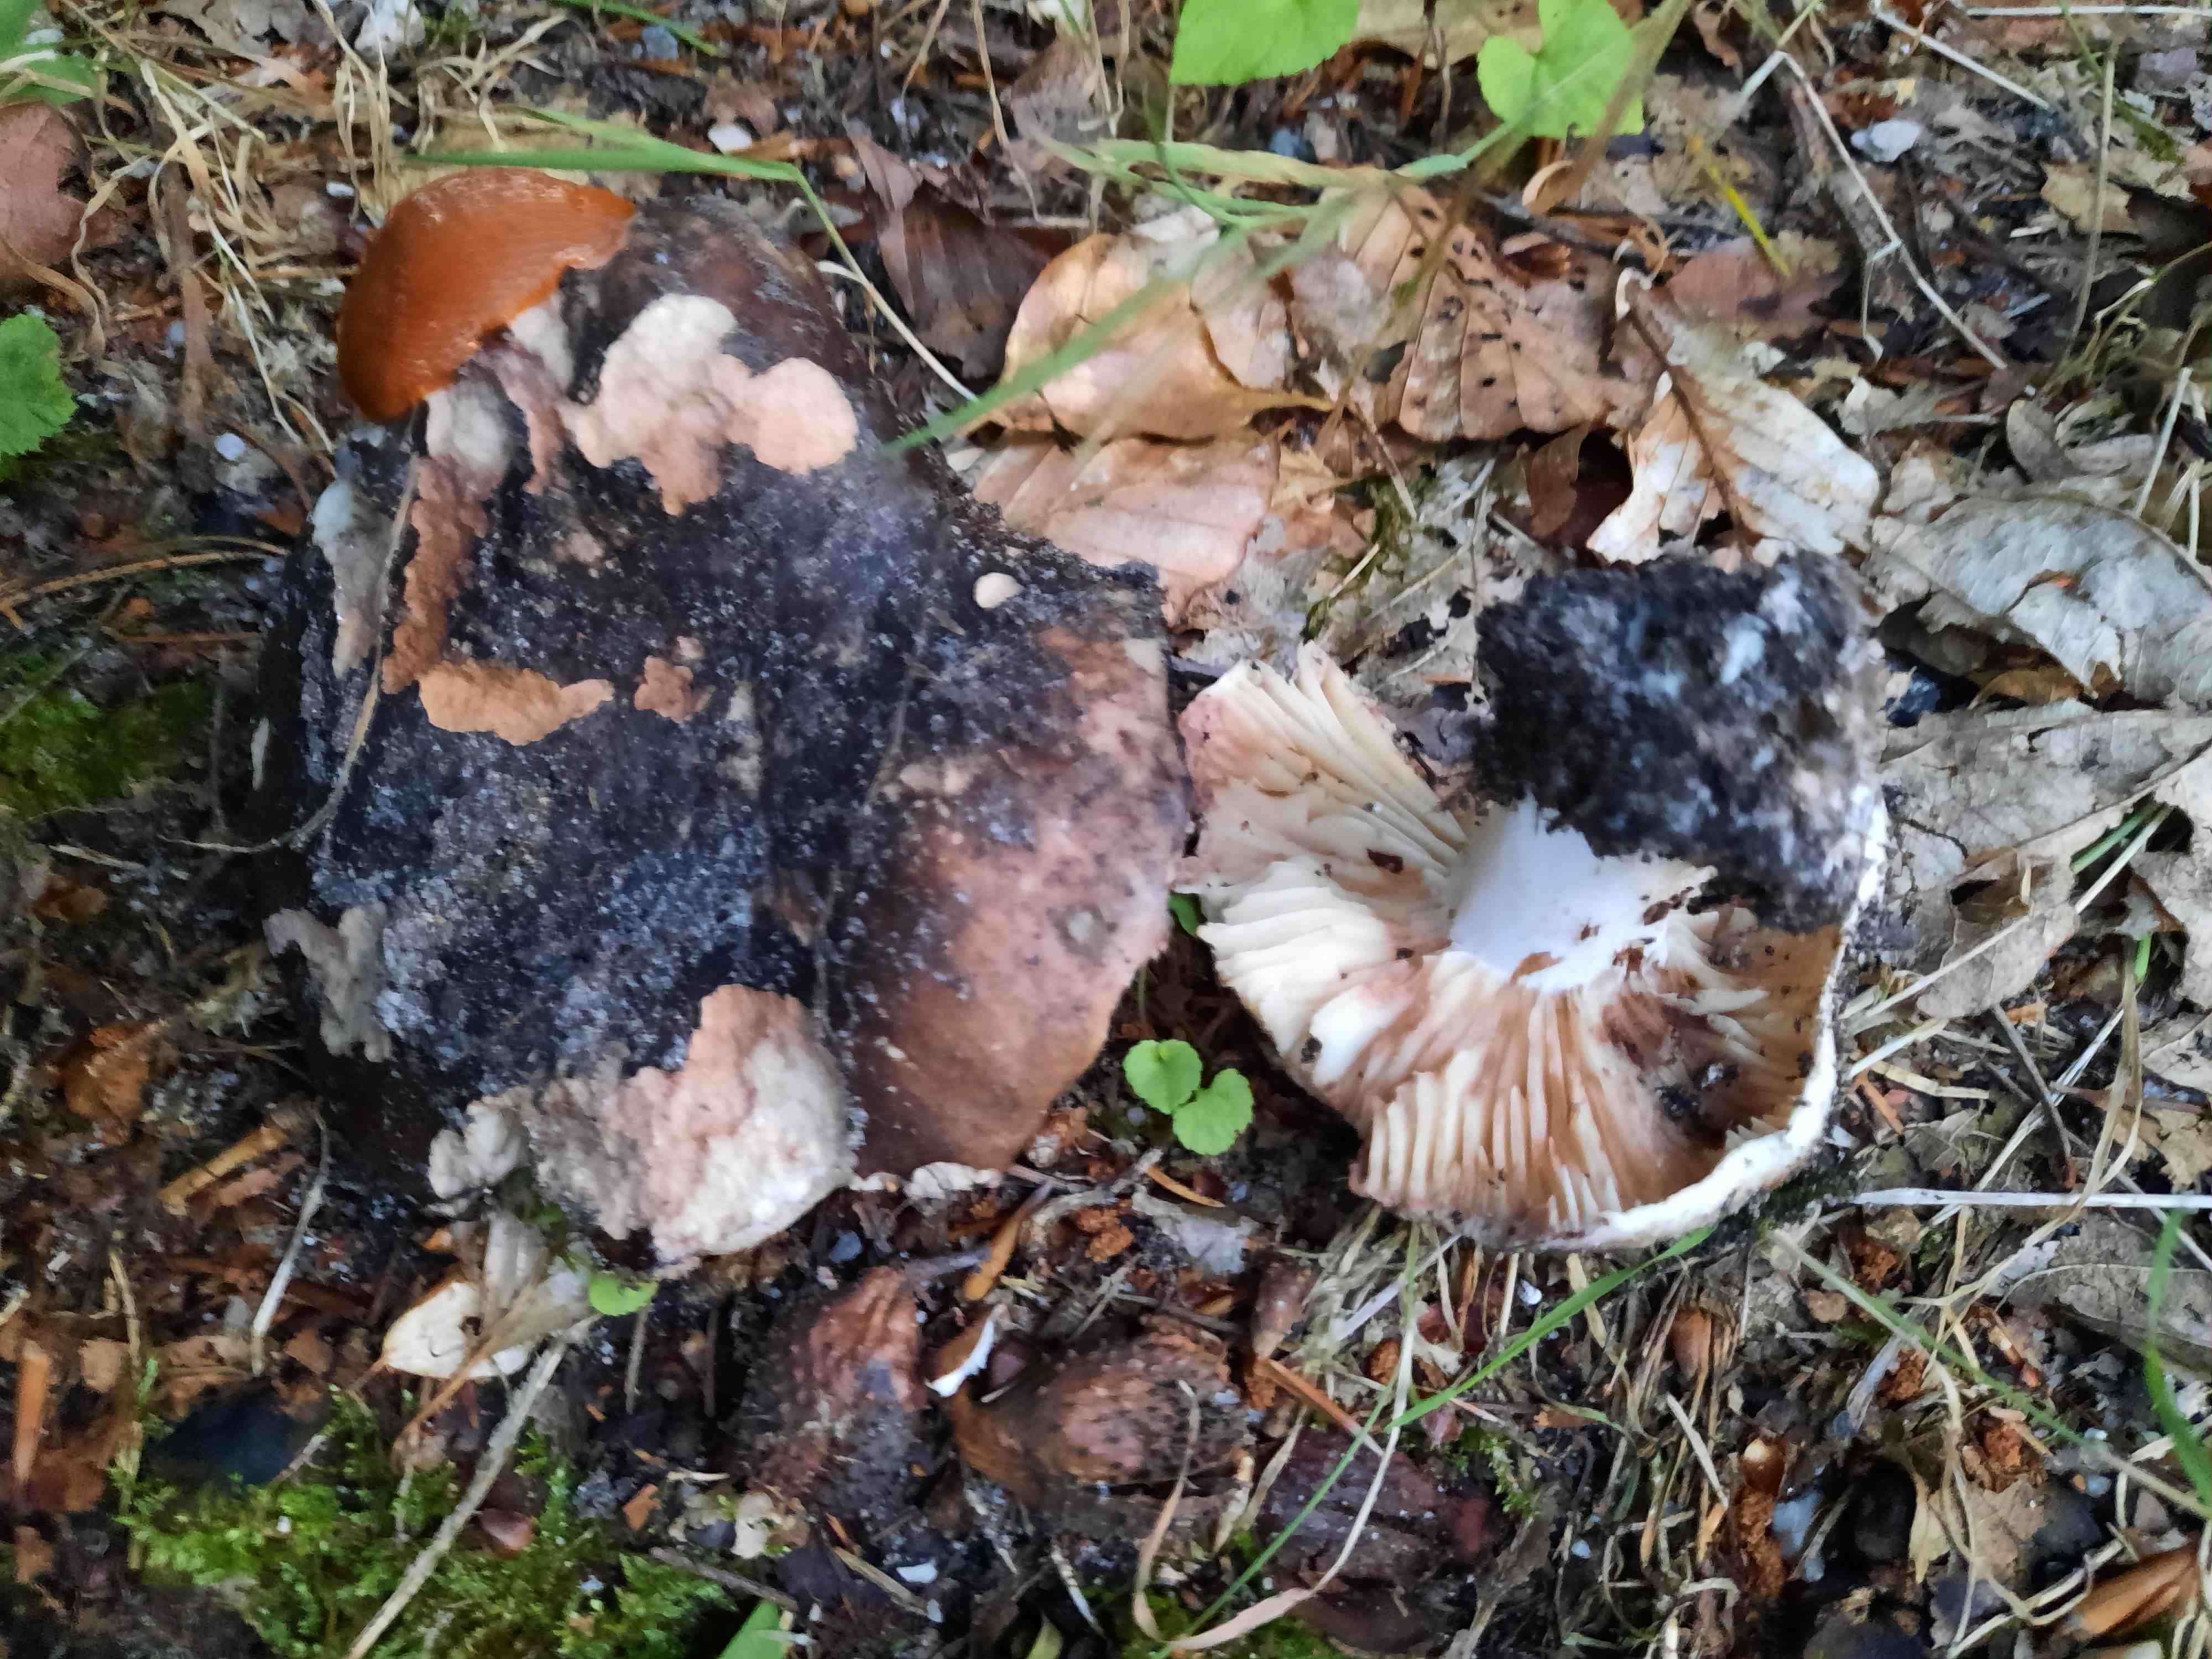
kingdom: Fungi
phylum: Basidiomycota
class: Agaricomycetes
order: Russulales
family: Russulaceae
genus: Russula
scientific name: Russula adusta
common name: sværtende skørhat
